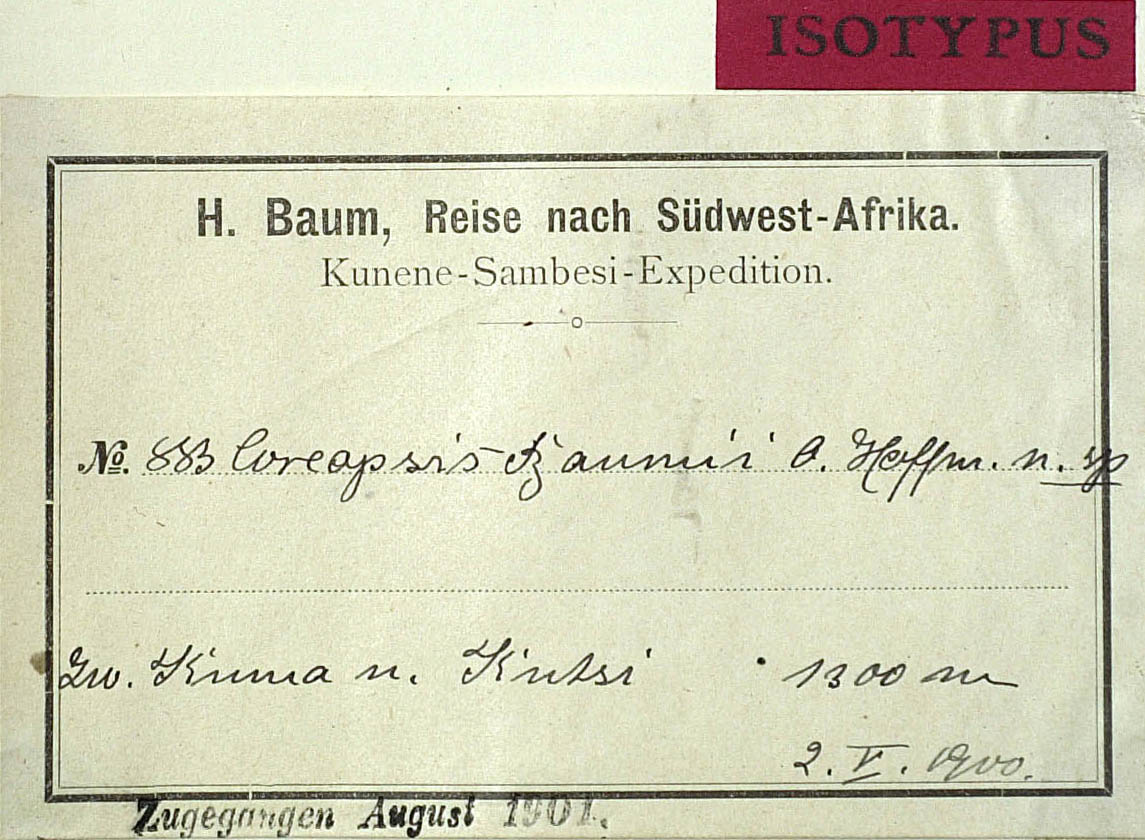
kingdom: Plantae
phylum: Tracheophyta
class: Magnoliopsida
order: Asterales
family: Asteraceae
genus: Bidens
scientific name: Bidens baumii
